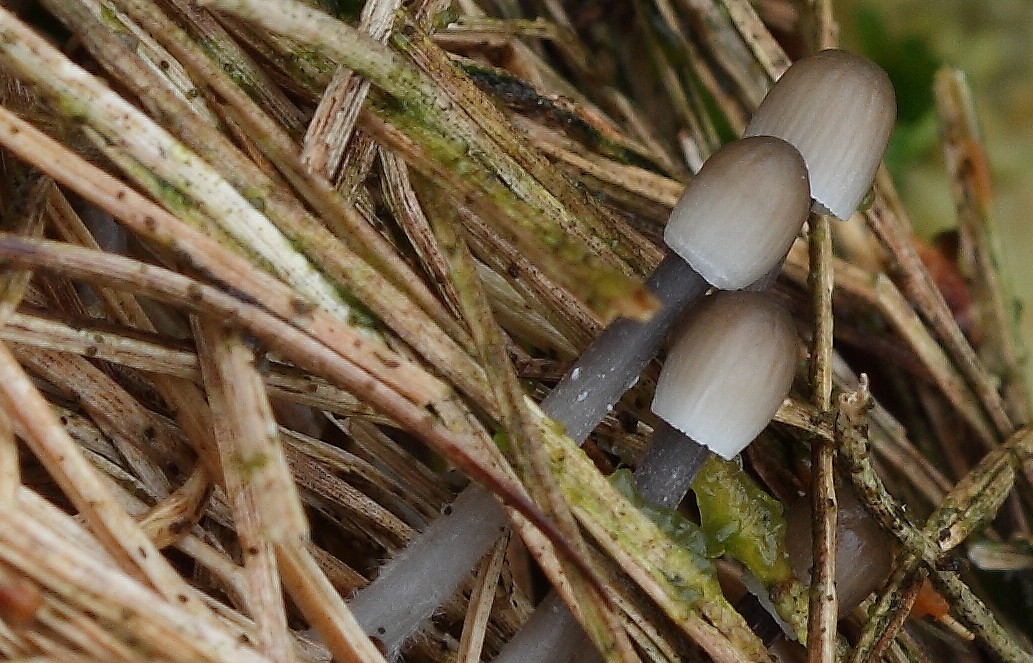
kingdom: Fungi
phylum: Basidiomycota
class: Agaricomycetes
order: Agaricales
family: Mycenaceae
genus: Mycena
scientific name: Mycena galopus
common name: hvidmælket huesvamp
